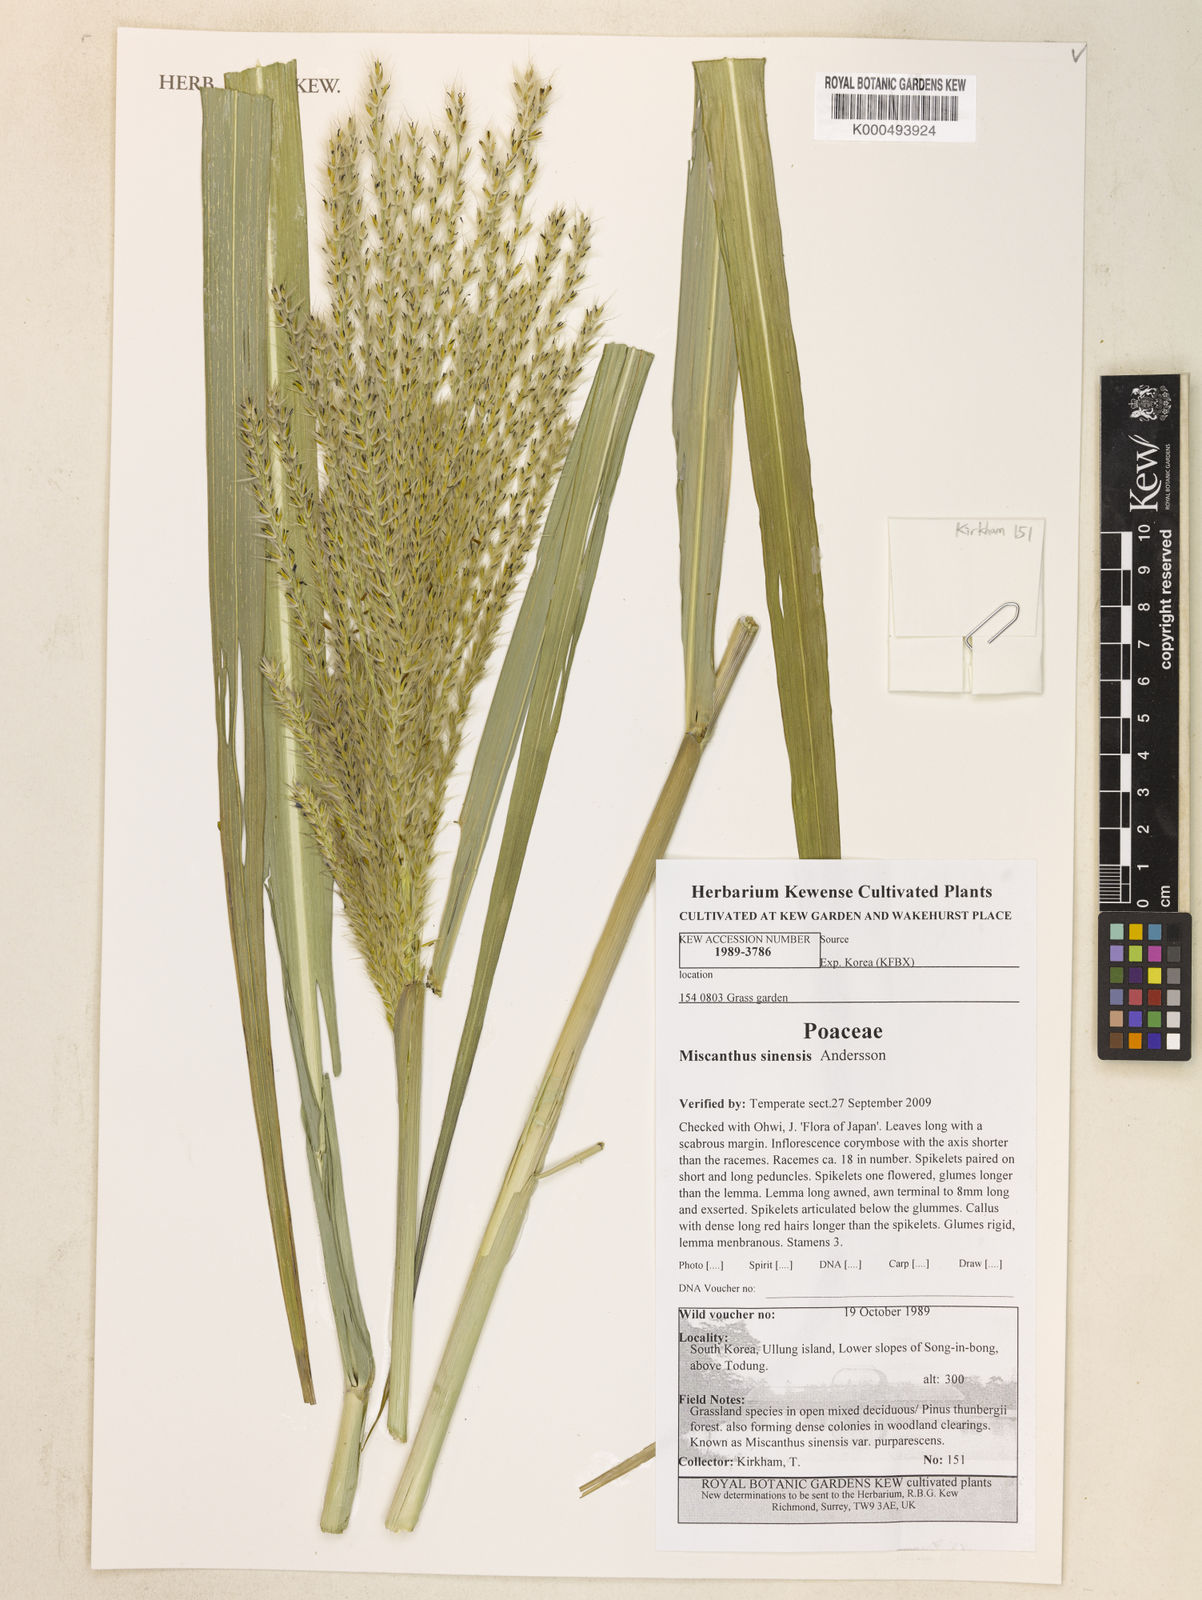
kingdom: Plantae
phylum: Tracheophyta
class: Liliopsida
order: Poales
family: Poaceae
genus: Miscanthus
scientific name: Miscanthus sinensis
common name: Chinese silvergrass
